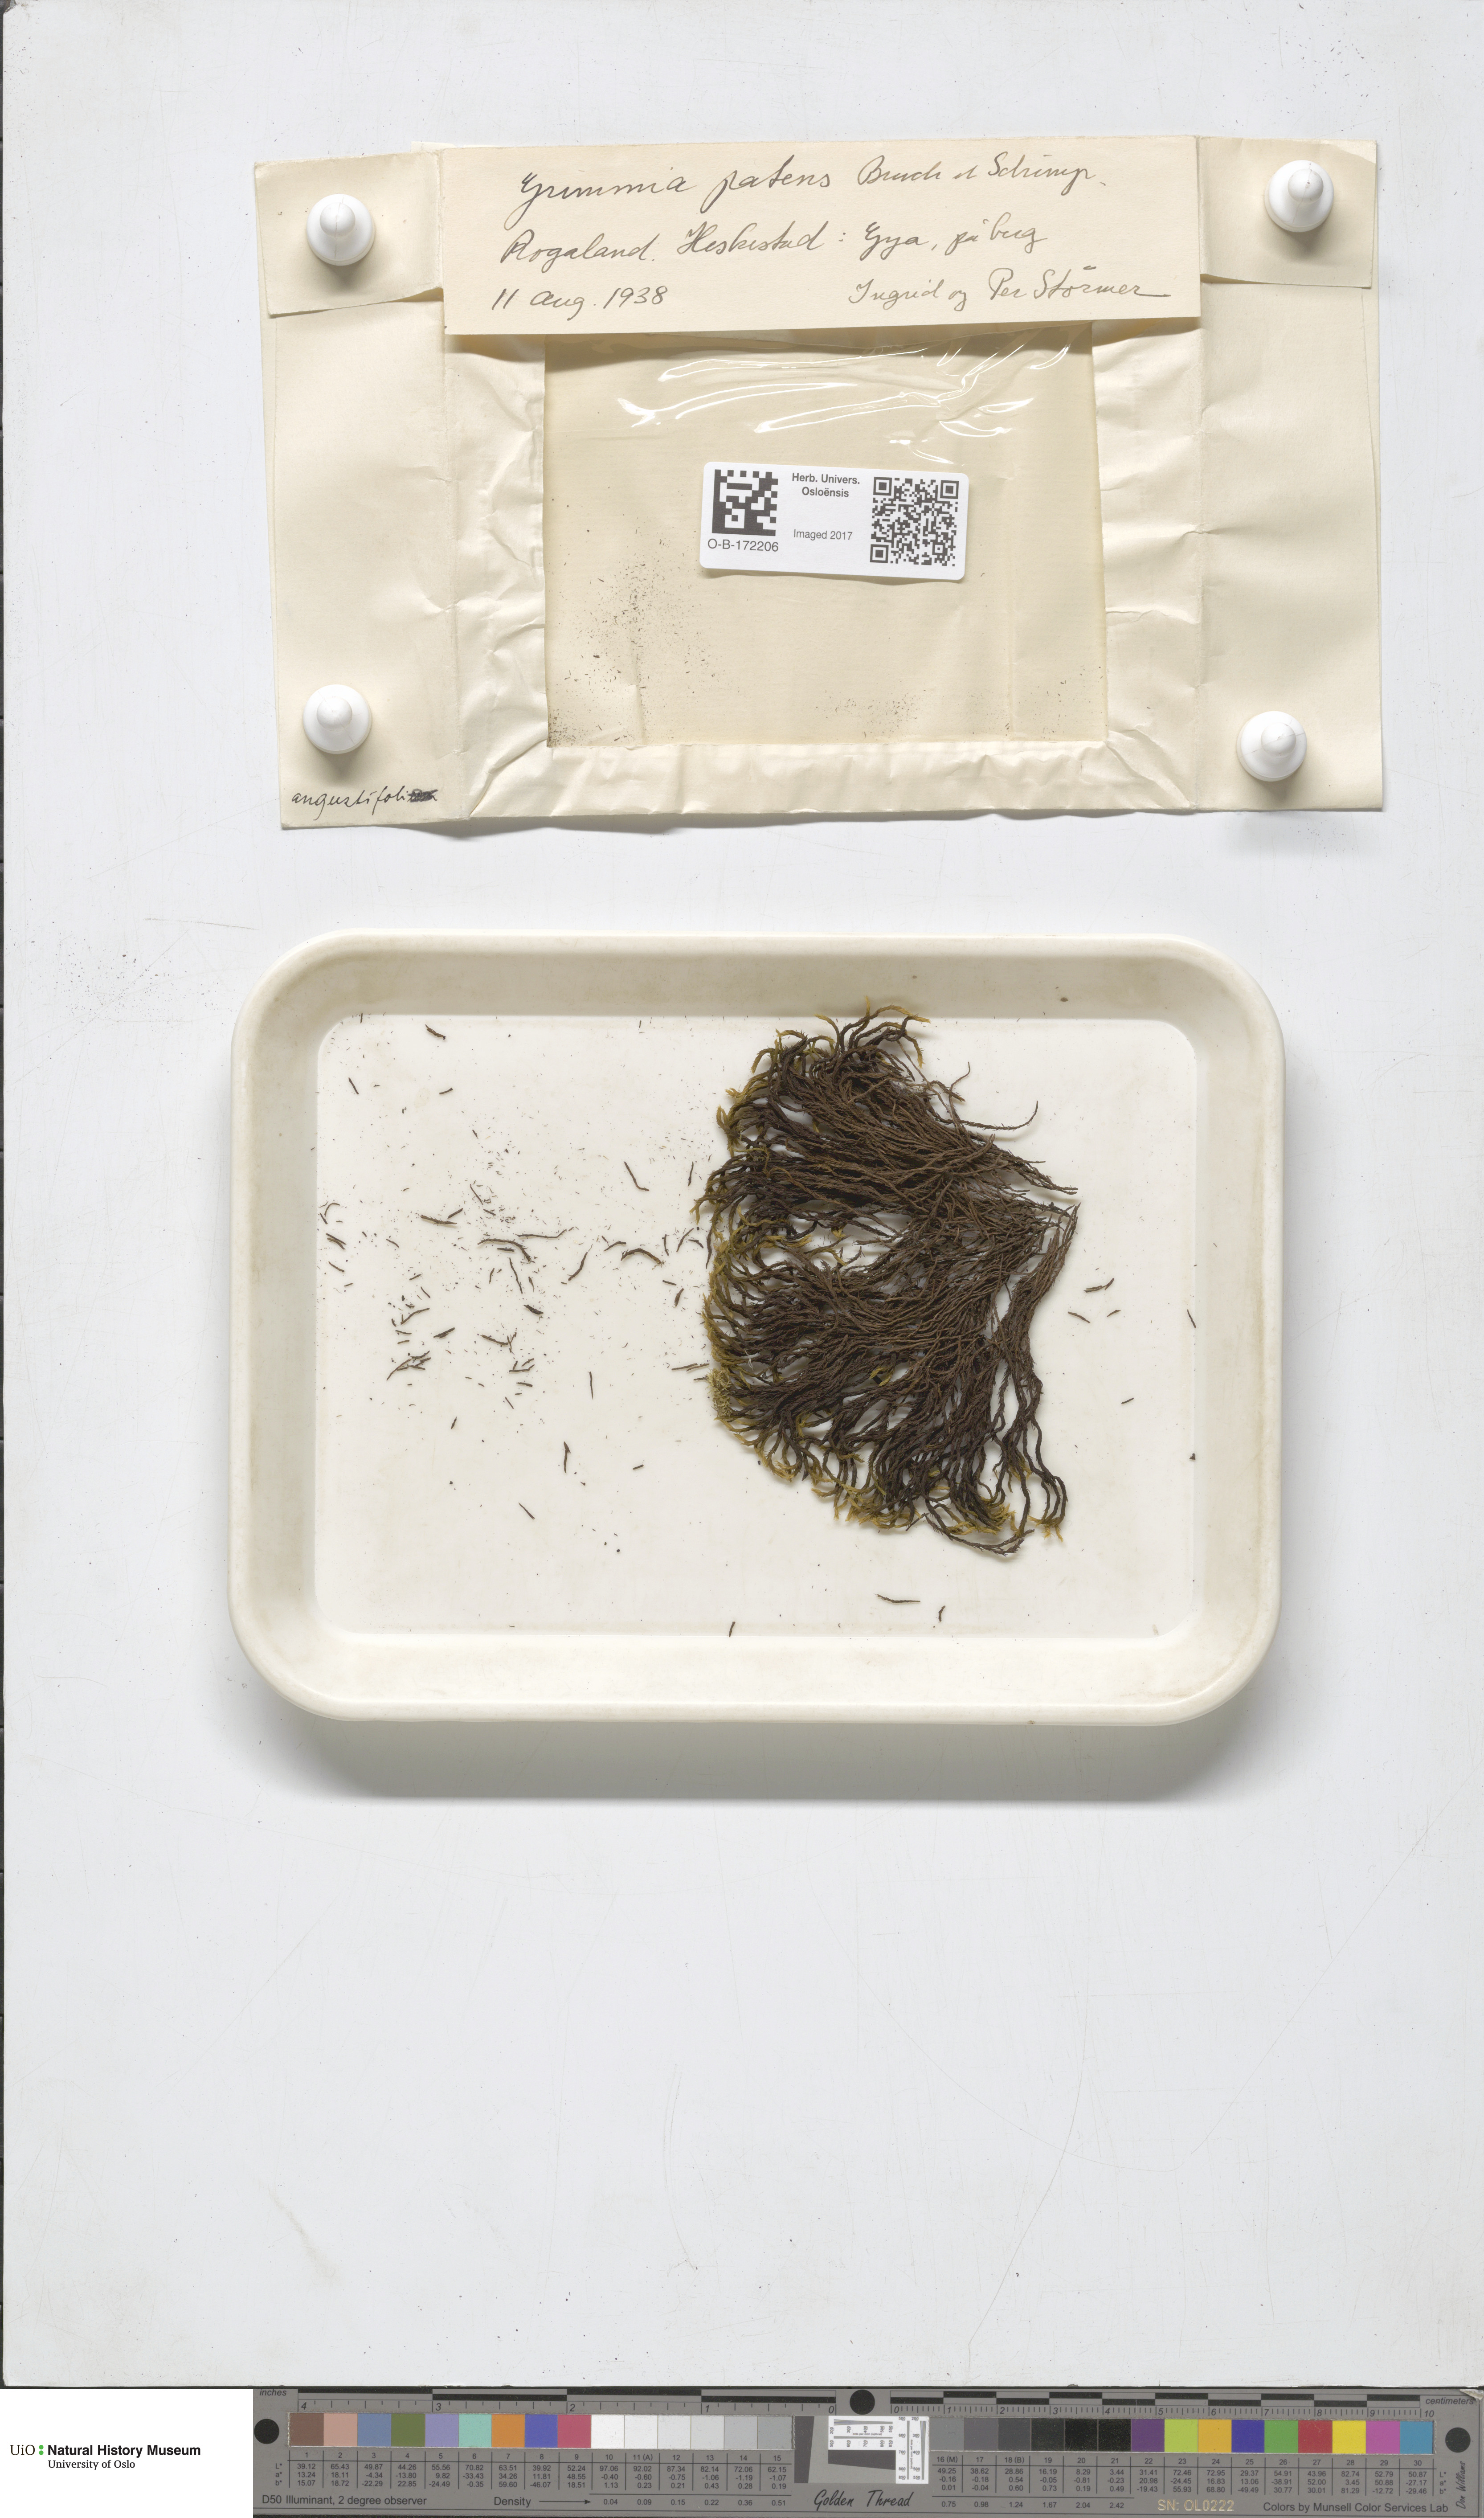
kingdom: Plantae
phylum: Bryophyta
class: Bryopsida
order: Grimmiales
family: Grimmiaceae
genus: Grimmia
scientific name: Grimmia ramondii
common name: Spreading-leaved grimmia
